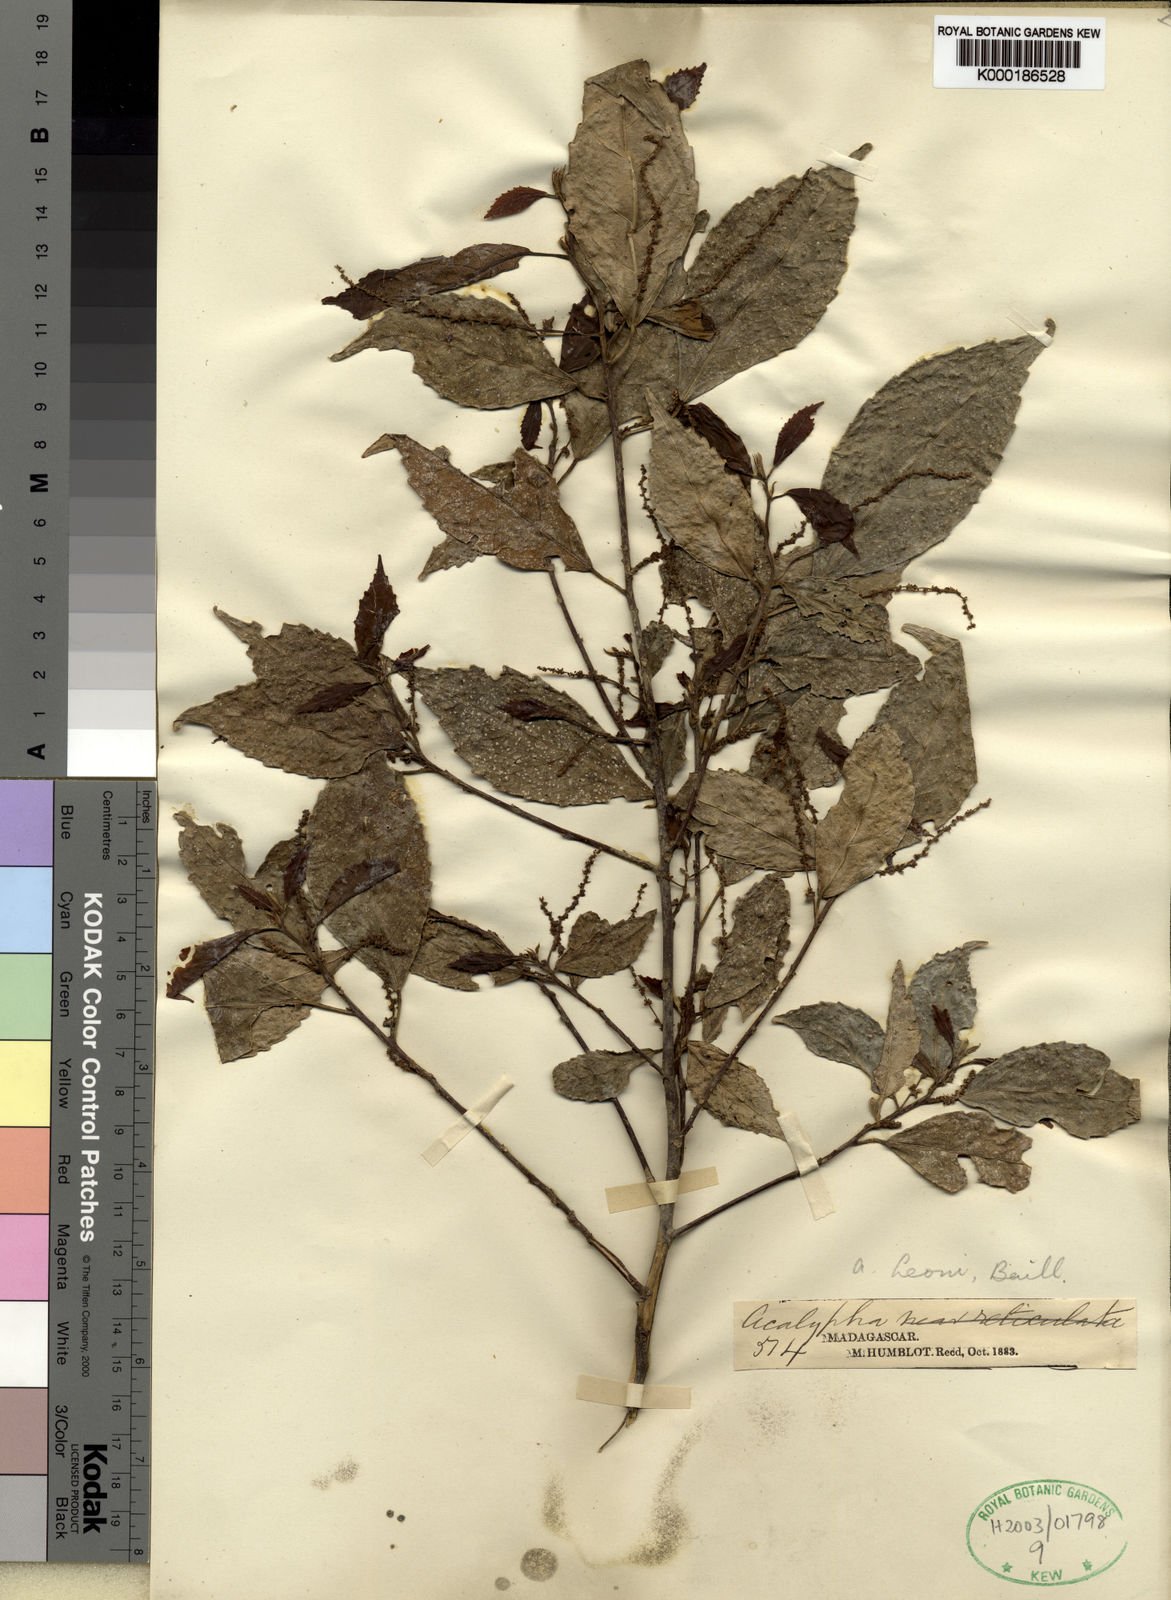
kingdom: Plantae
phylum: Tracheophyta
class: Magnoliopsida
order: Malpighiales
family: Euphorbiaceae
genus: Acalypha
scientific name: Acalypha leonii
